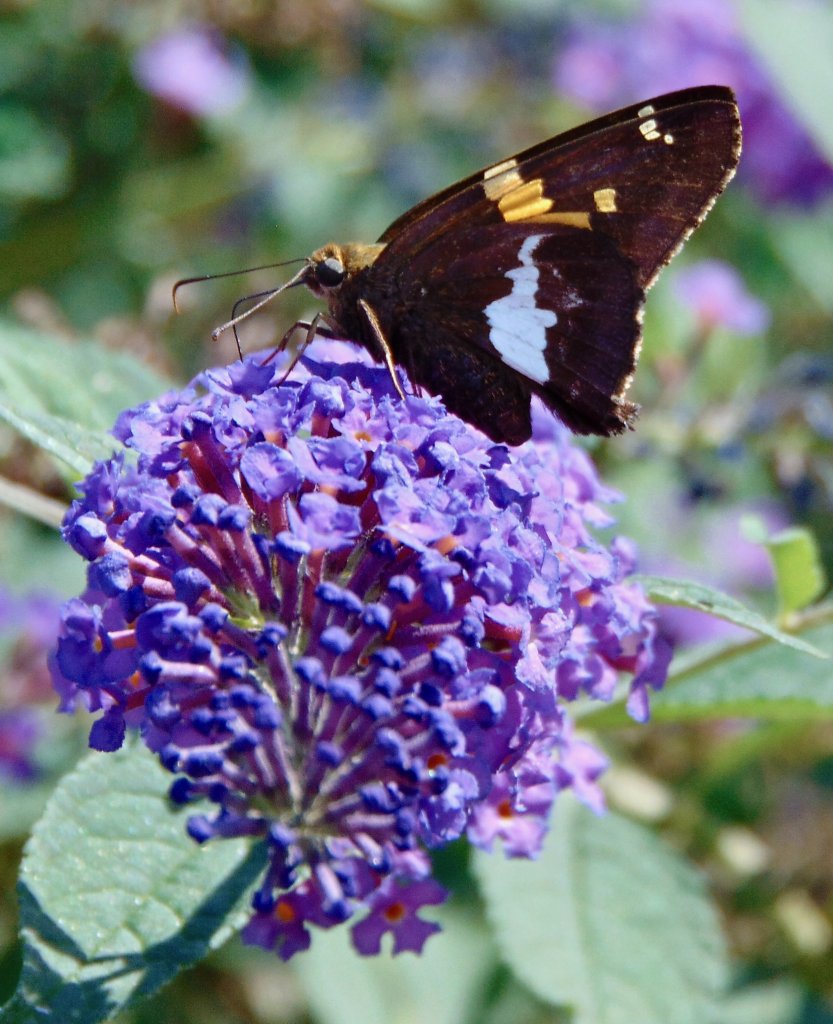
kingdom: Animalia
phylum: Arthropoda
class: Insecta
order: Lepidoptera
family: Hesperiidae
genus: Epargyreus
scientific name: Epargyreus clarus
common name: Silver-spotted Skipper
